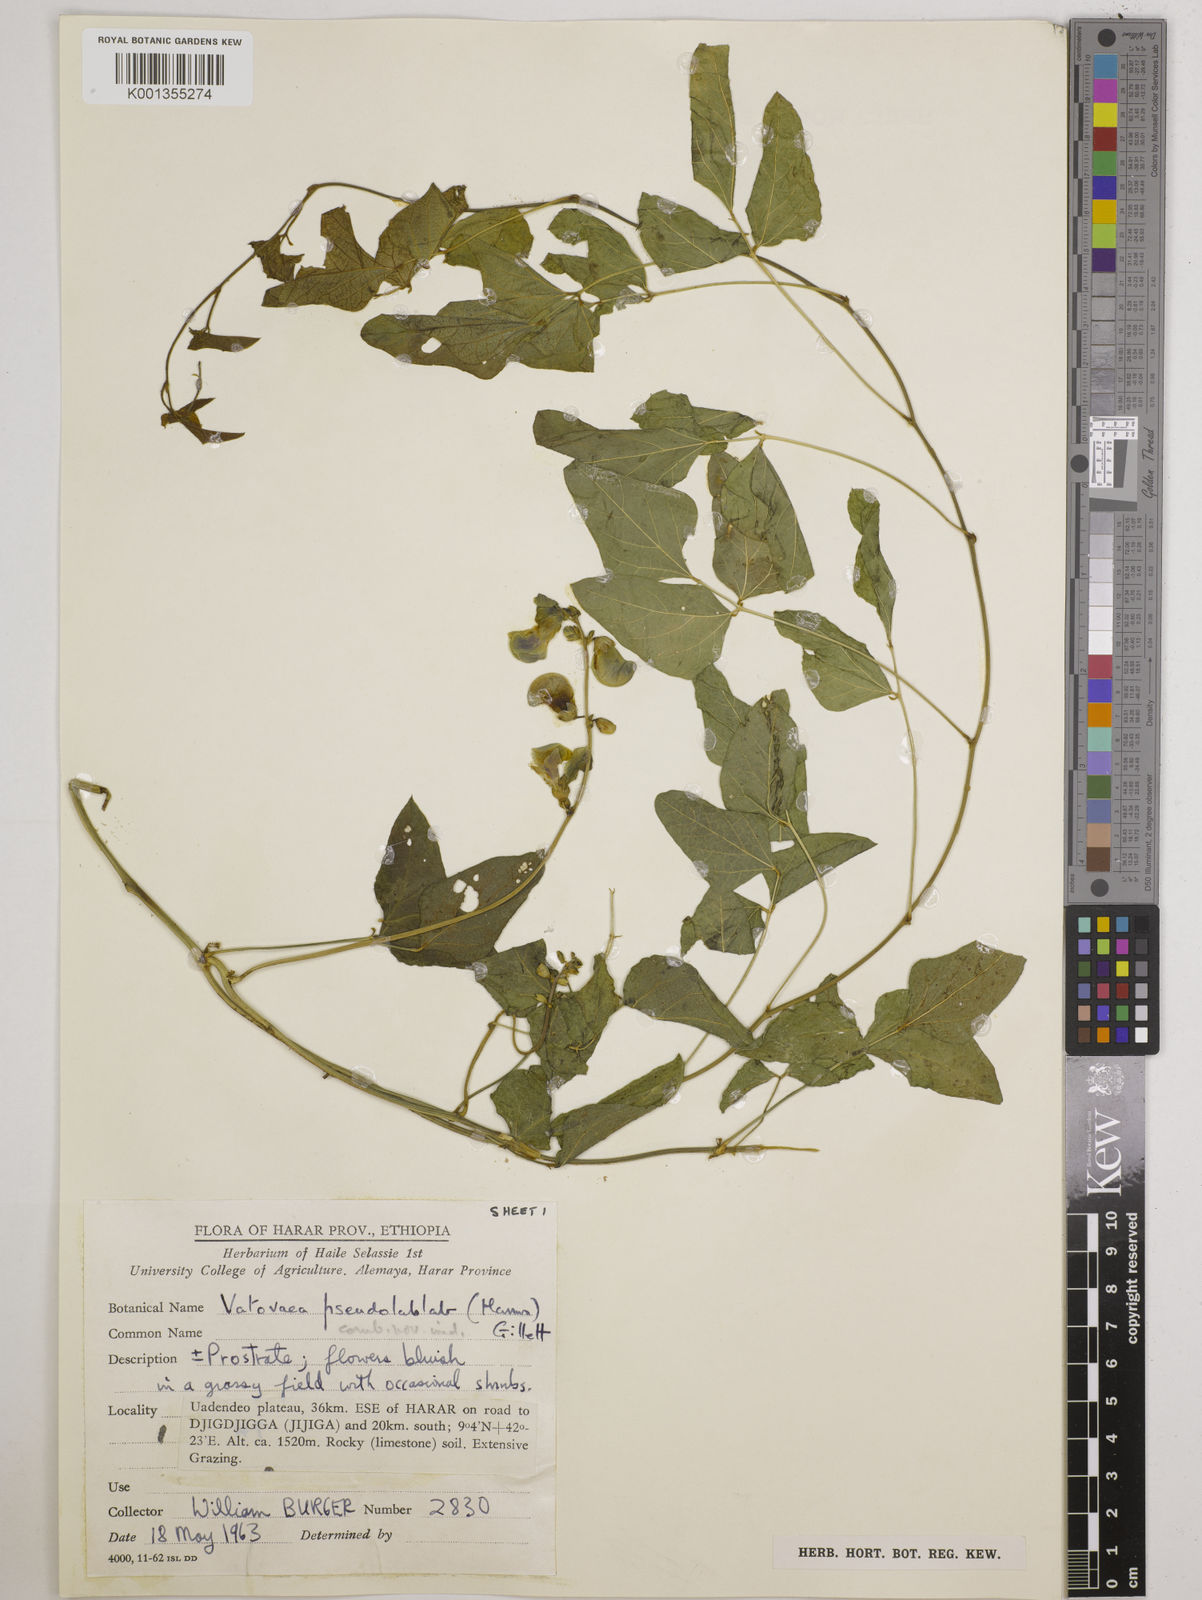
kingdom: Plantae
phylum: Tracheophyta
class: Magnoliopsida
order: Fabales
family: Fabaceae
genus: Vatovaea
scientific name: Vatovaea pseudolablab
